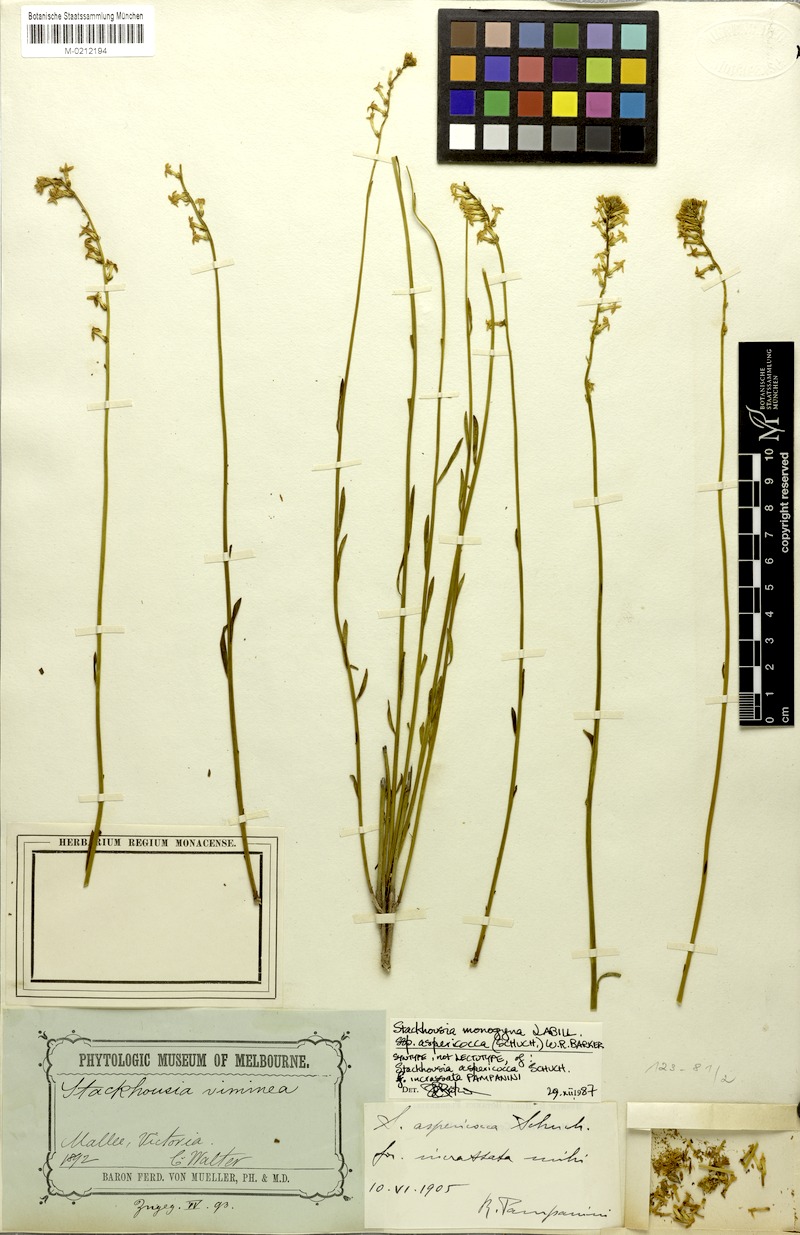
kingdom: Plantae
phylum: Tracheophyta
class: Magnoliopsida
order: Celastrales
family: Celastraceae
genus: Stackhousia
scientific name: Stackhousia monogyna
